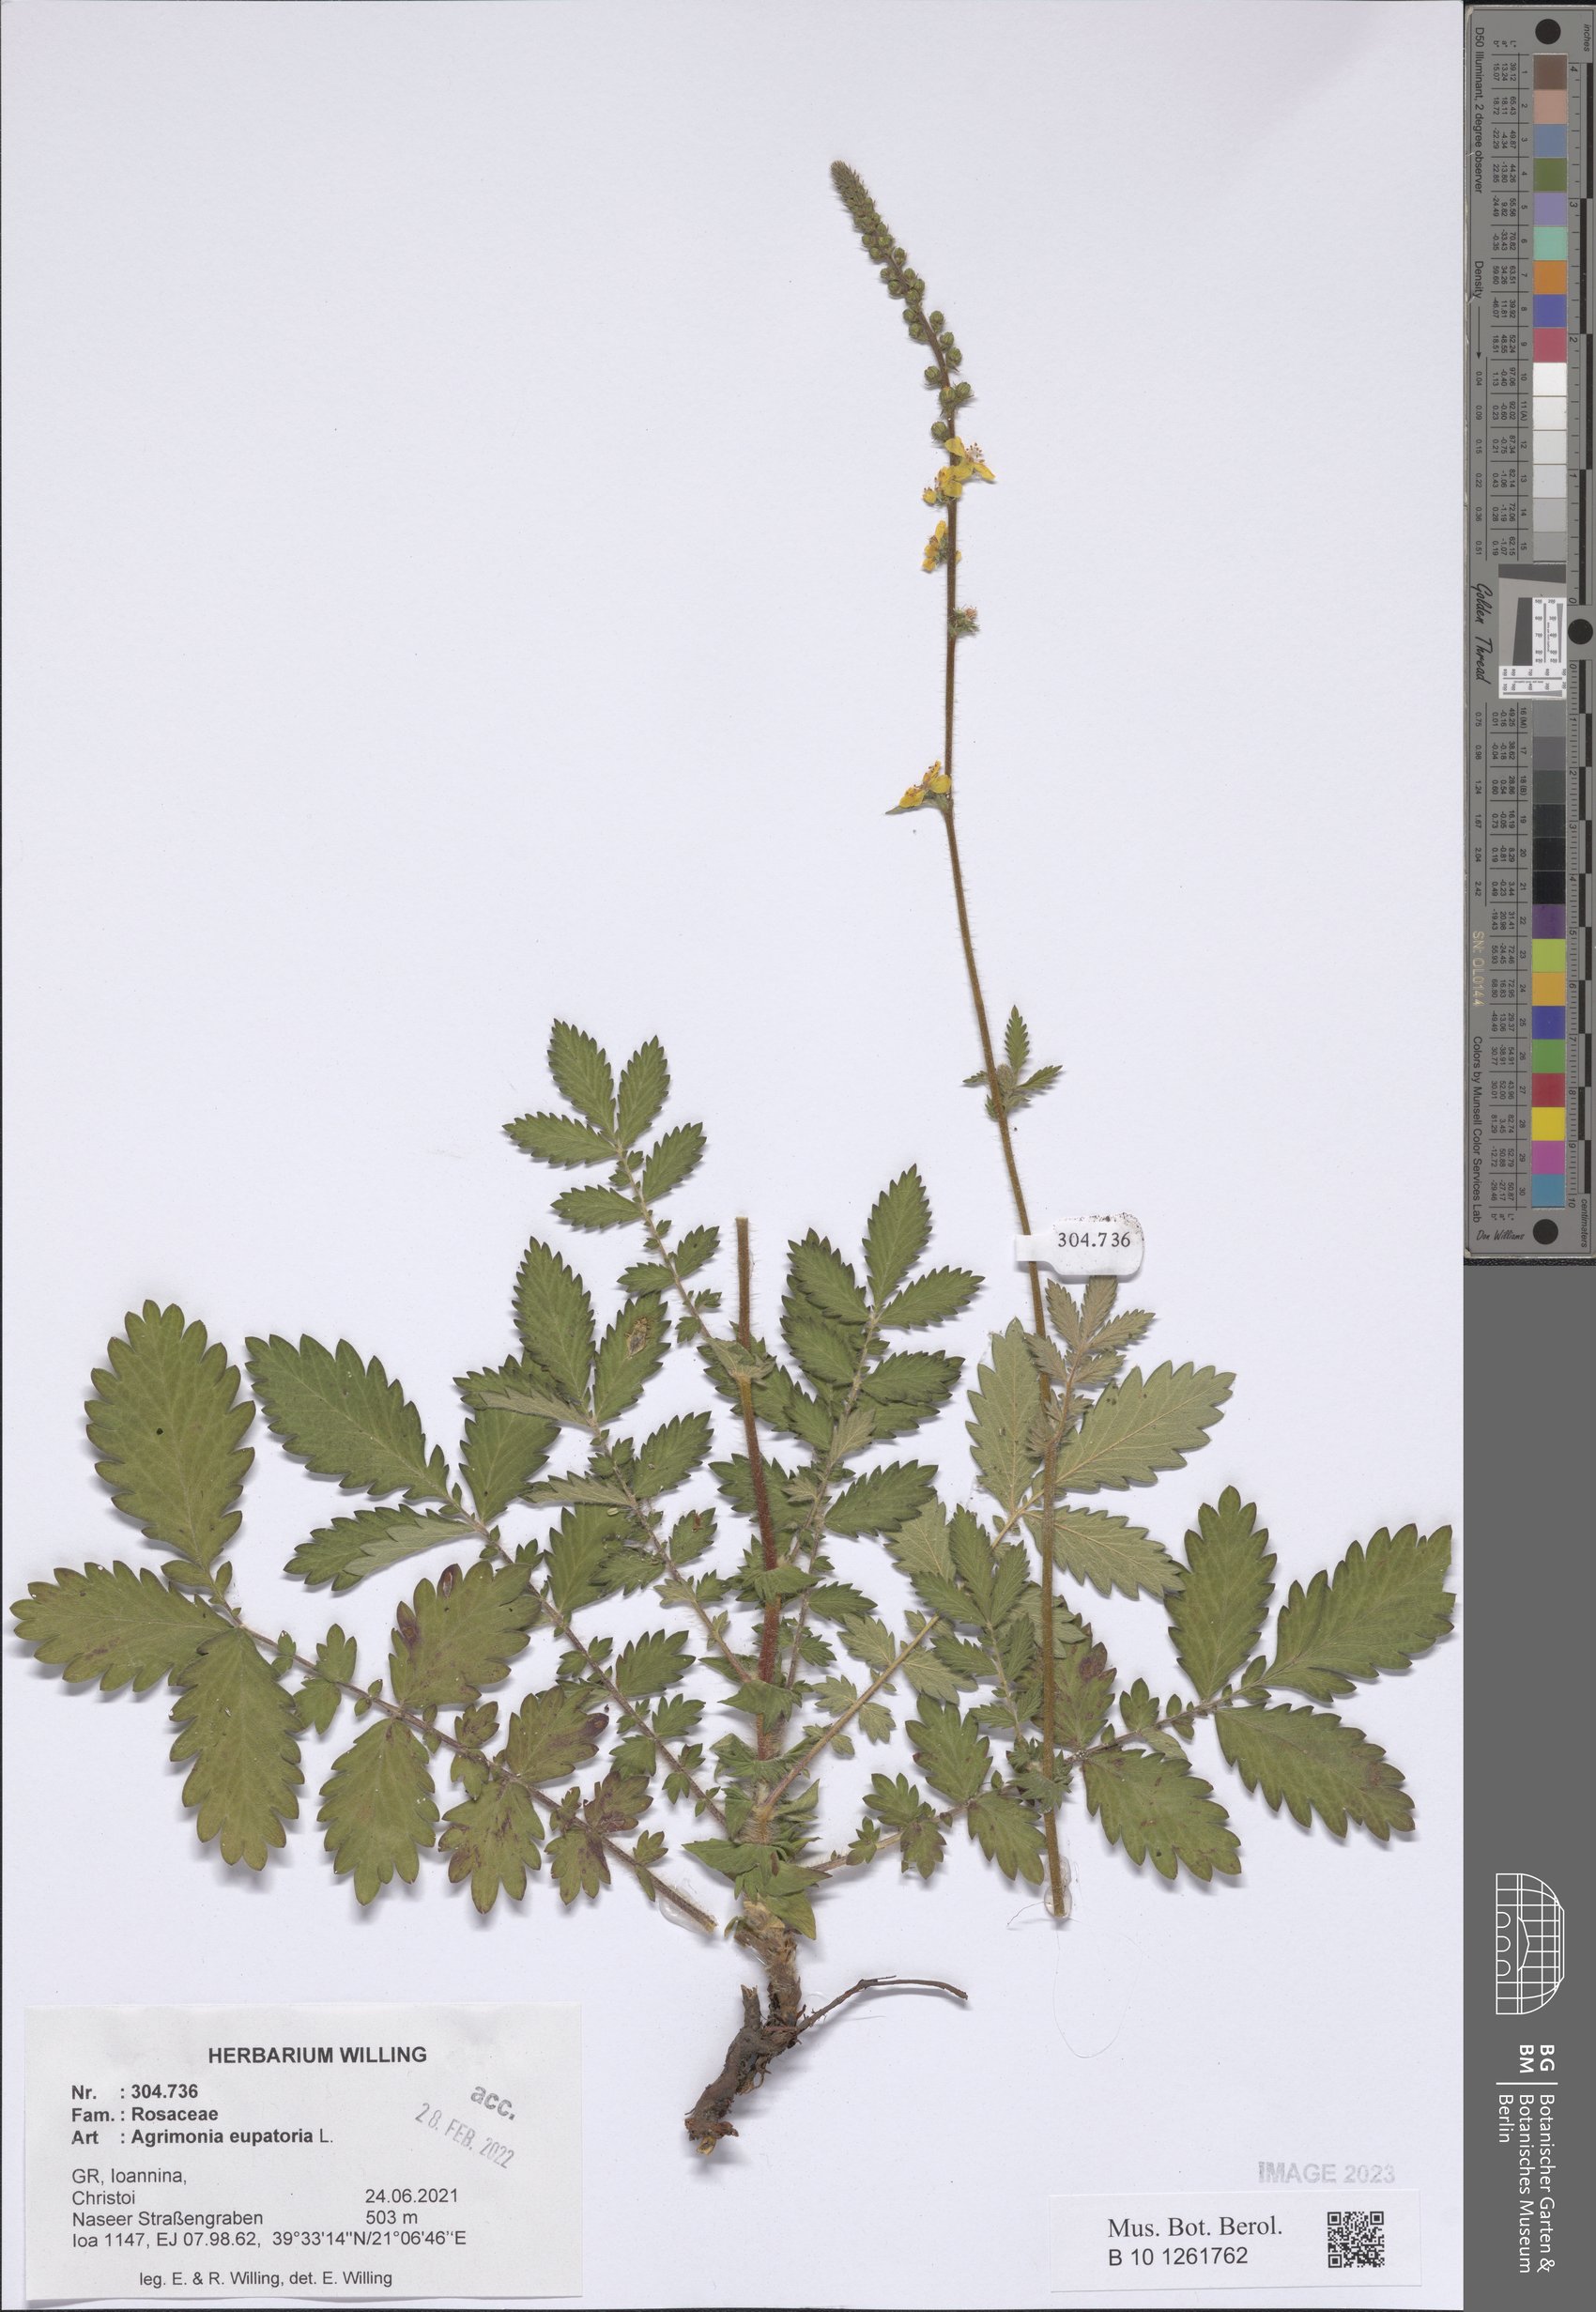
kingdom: Plantae
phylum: Tracheophyta
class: Magnoliopsida
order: Rosales
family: Rosaceae
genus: Agrimonia
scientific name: Agrimonia eupatoria
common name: Agrimony
